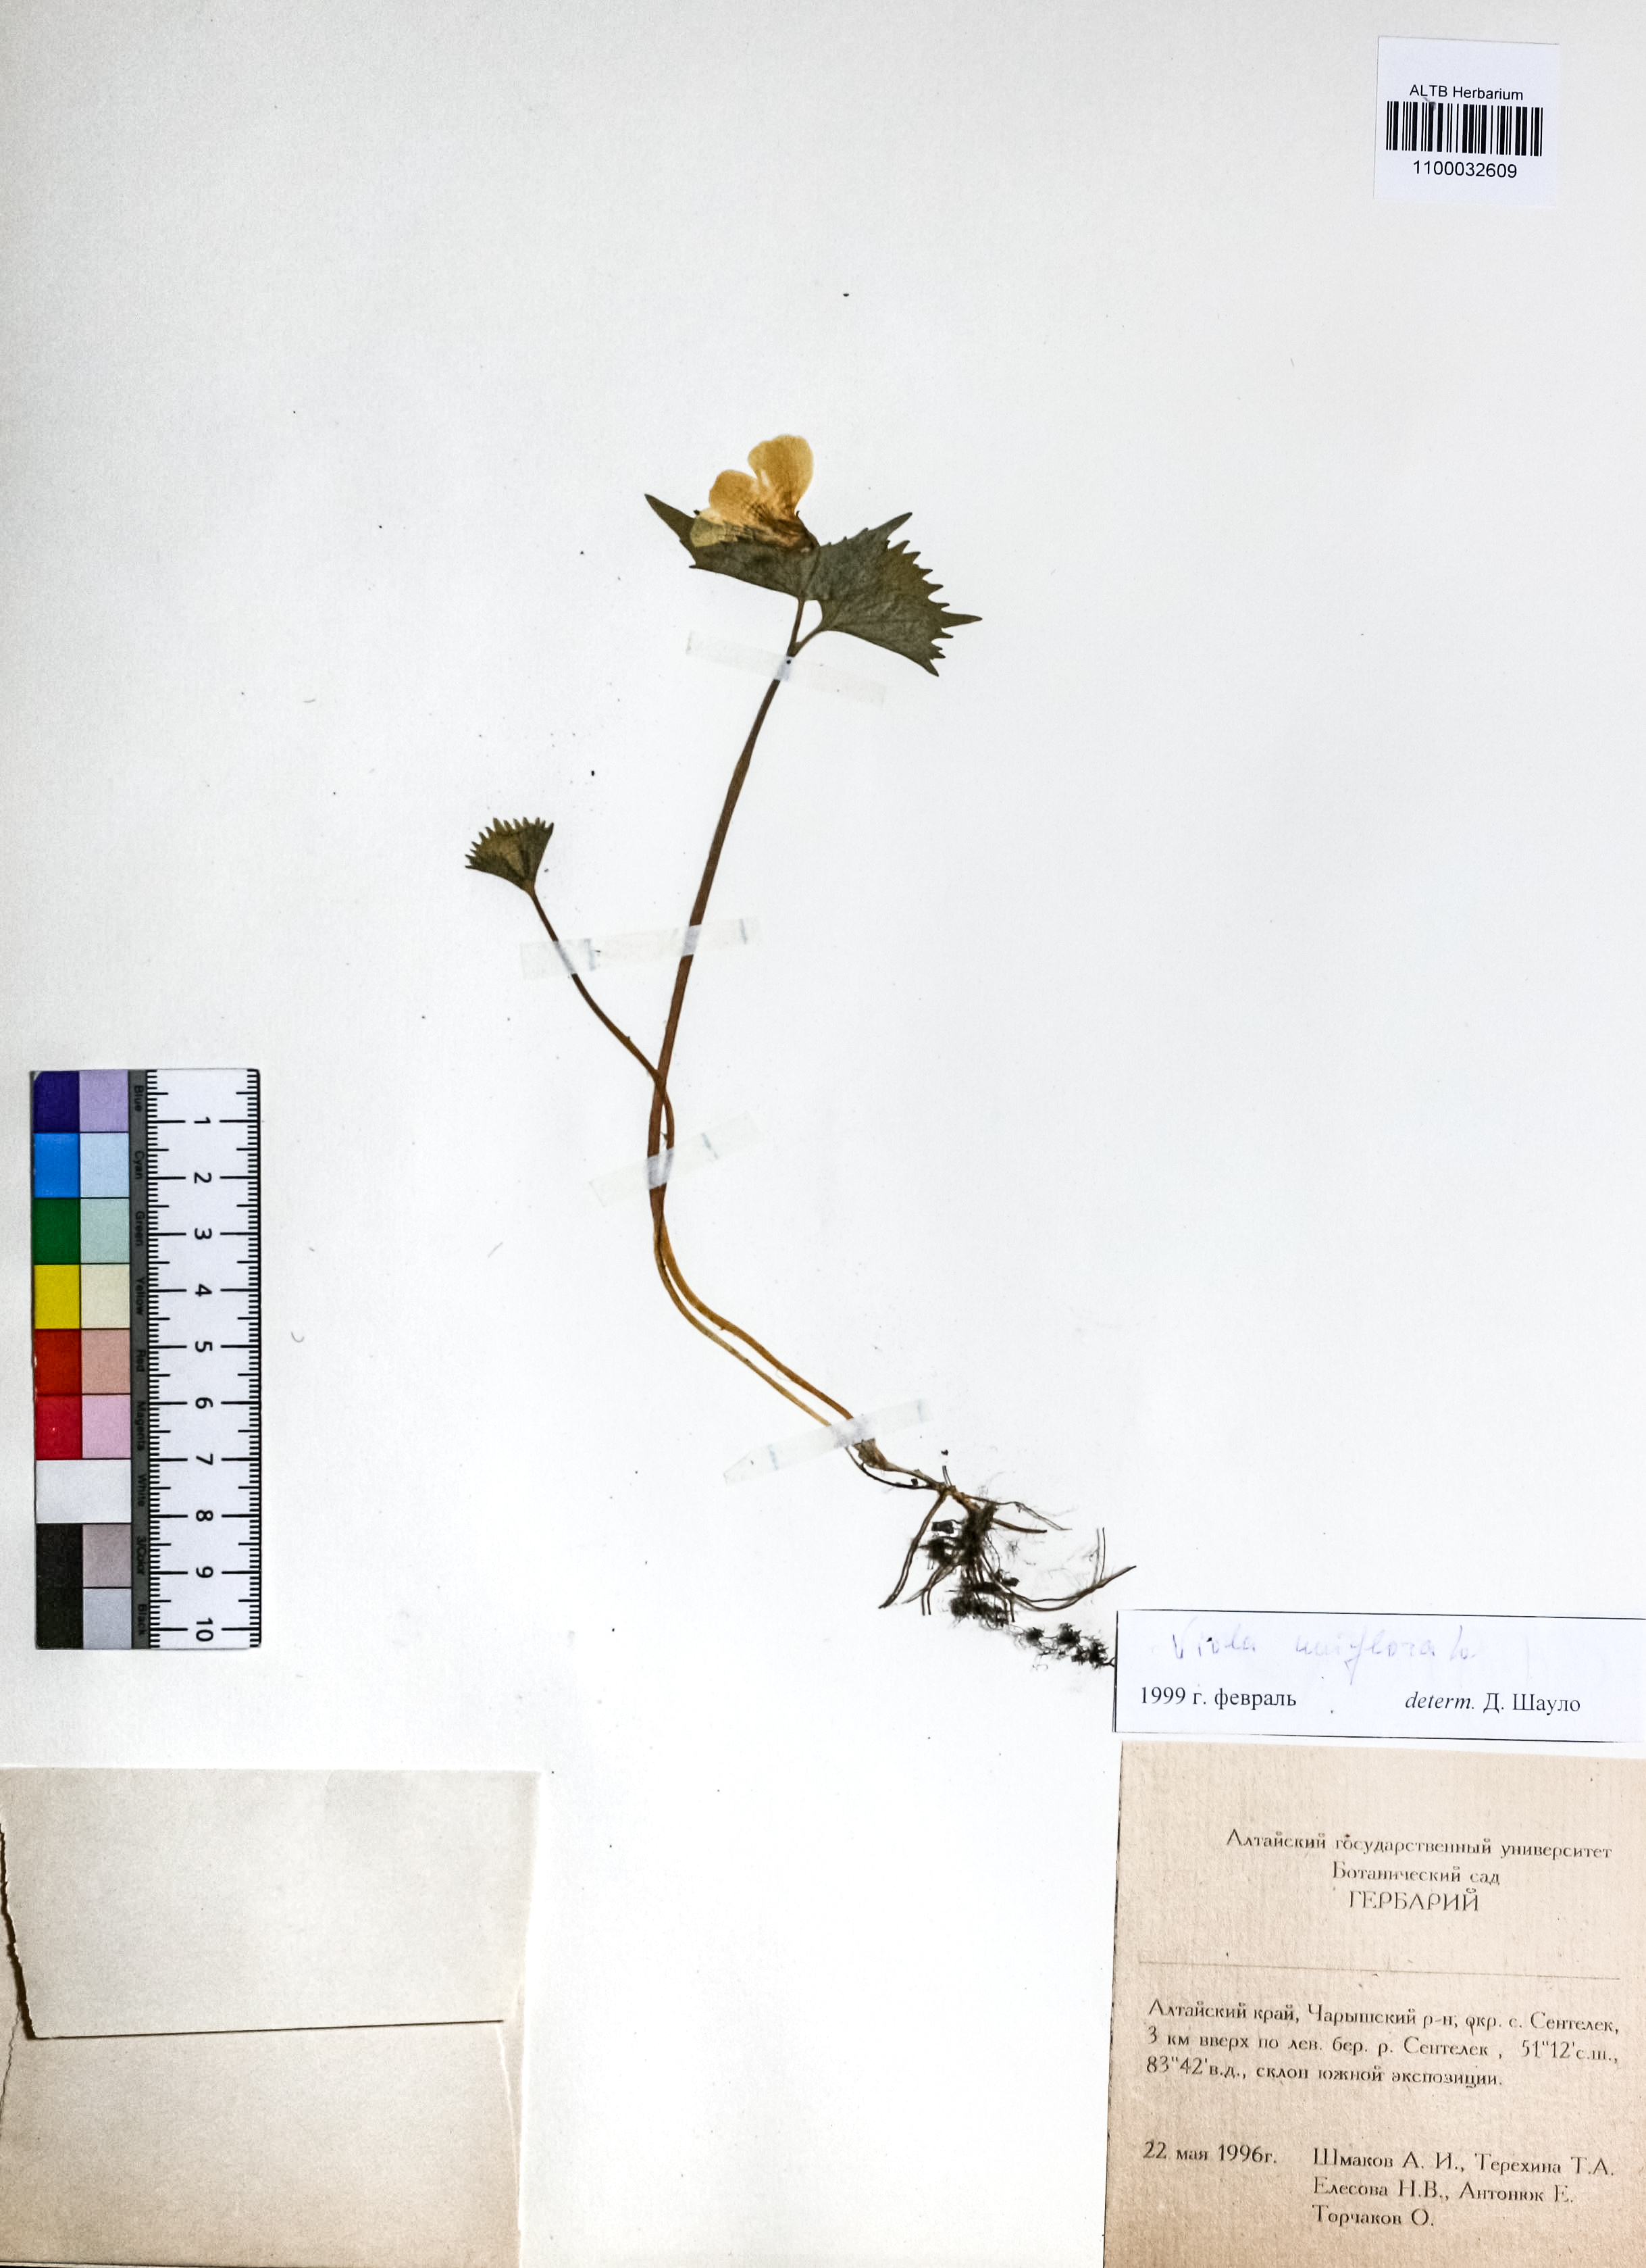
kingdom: Plantae
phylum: Tracheophyta
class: Magnoliopsida
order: Malpighiales
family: Violaceae
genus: Viola
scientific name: Viola uniflora
